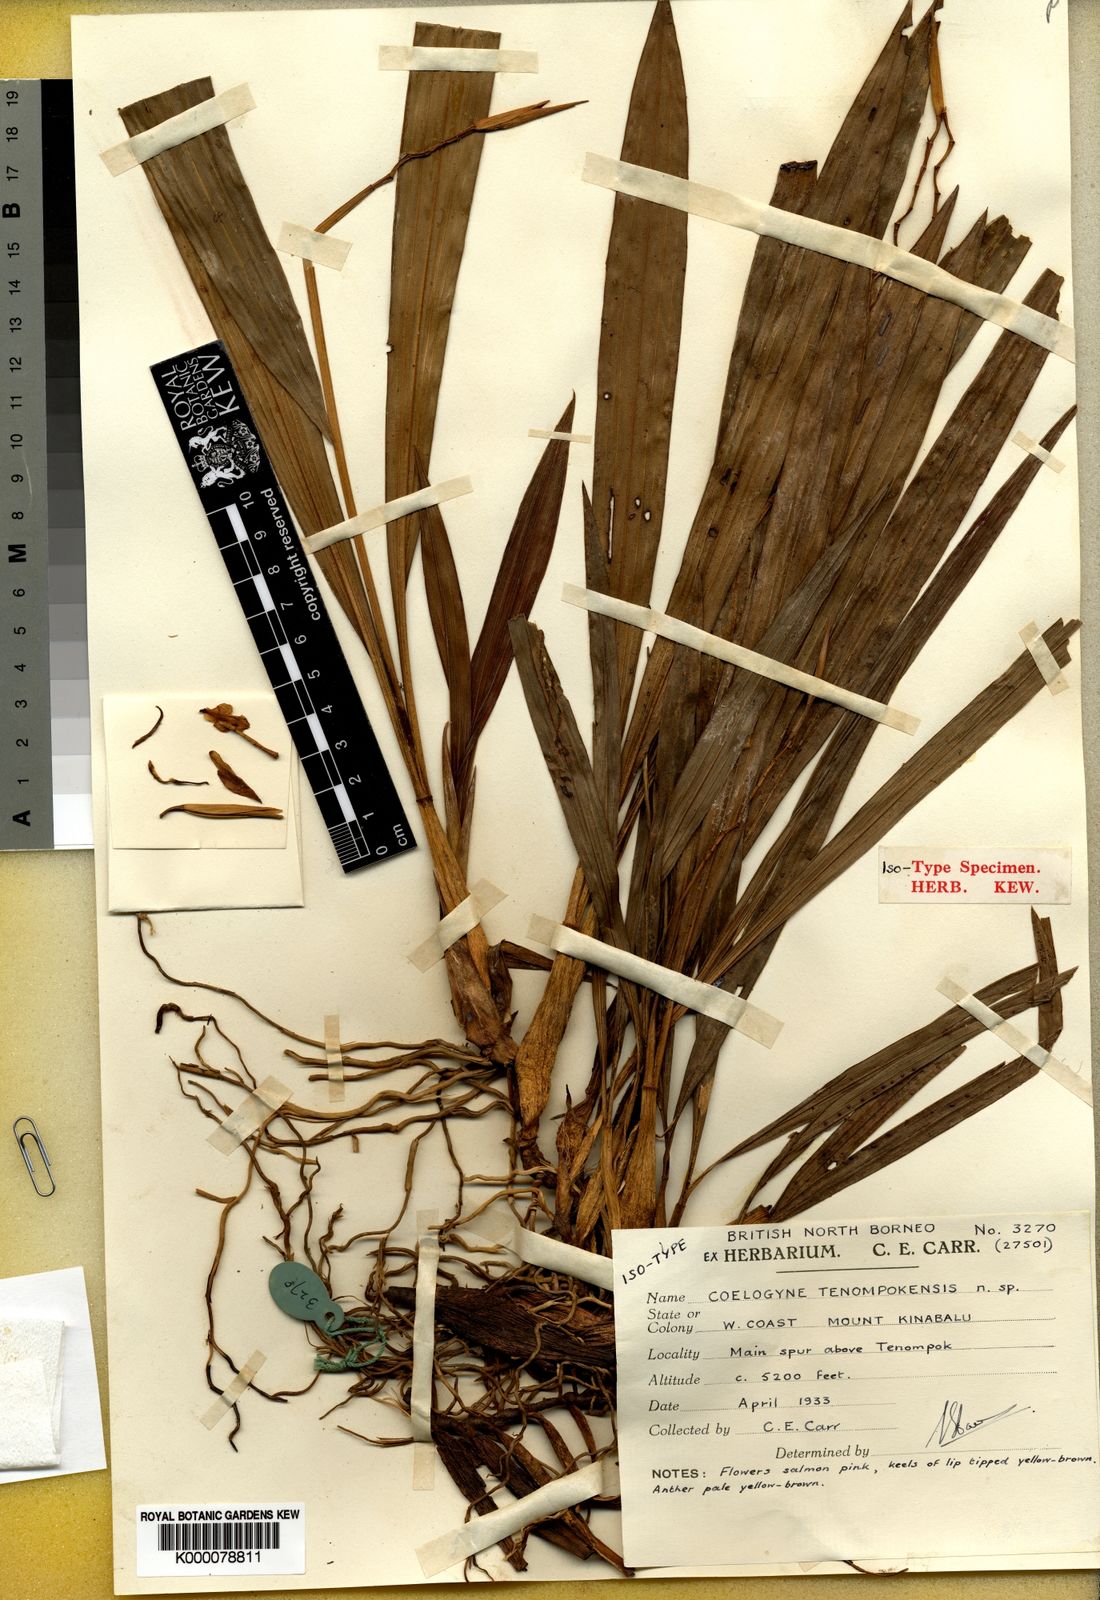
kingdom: Plantae
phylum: Tracheophyta
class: Liliopsida
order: Asparagales
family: Orchidaceae
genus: Coelogyne
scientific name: Coelogyne tenompokensis
